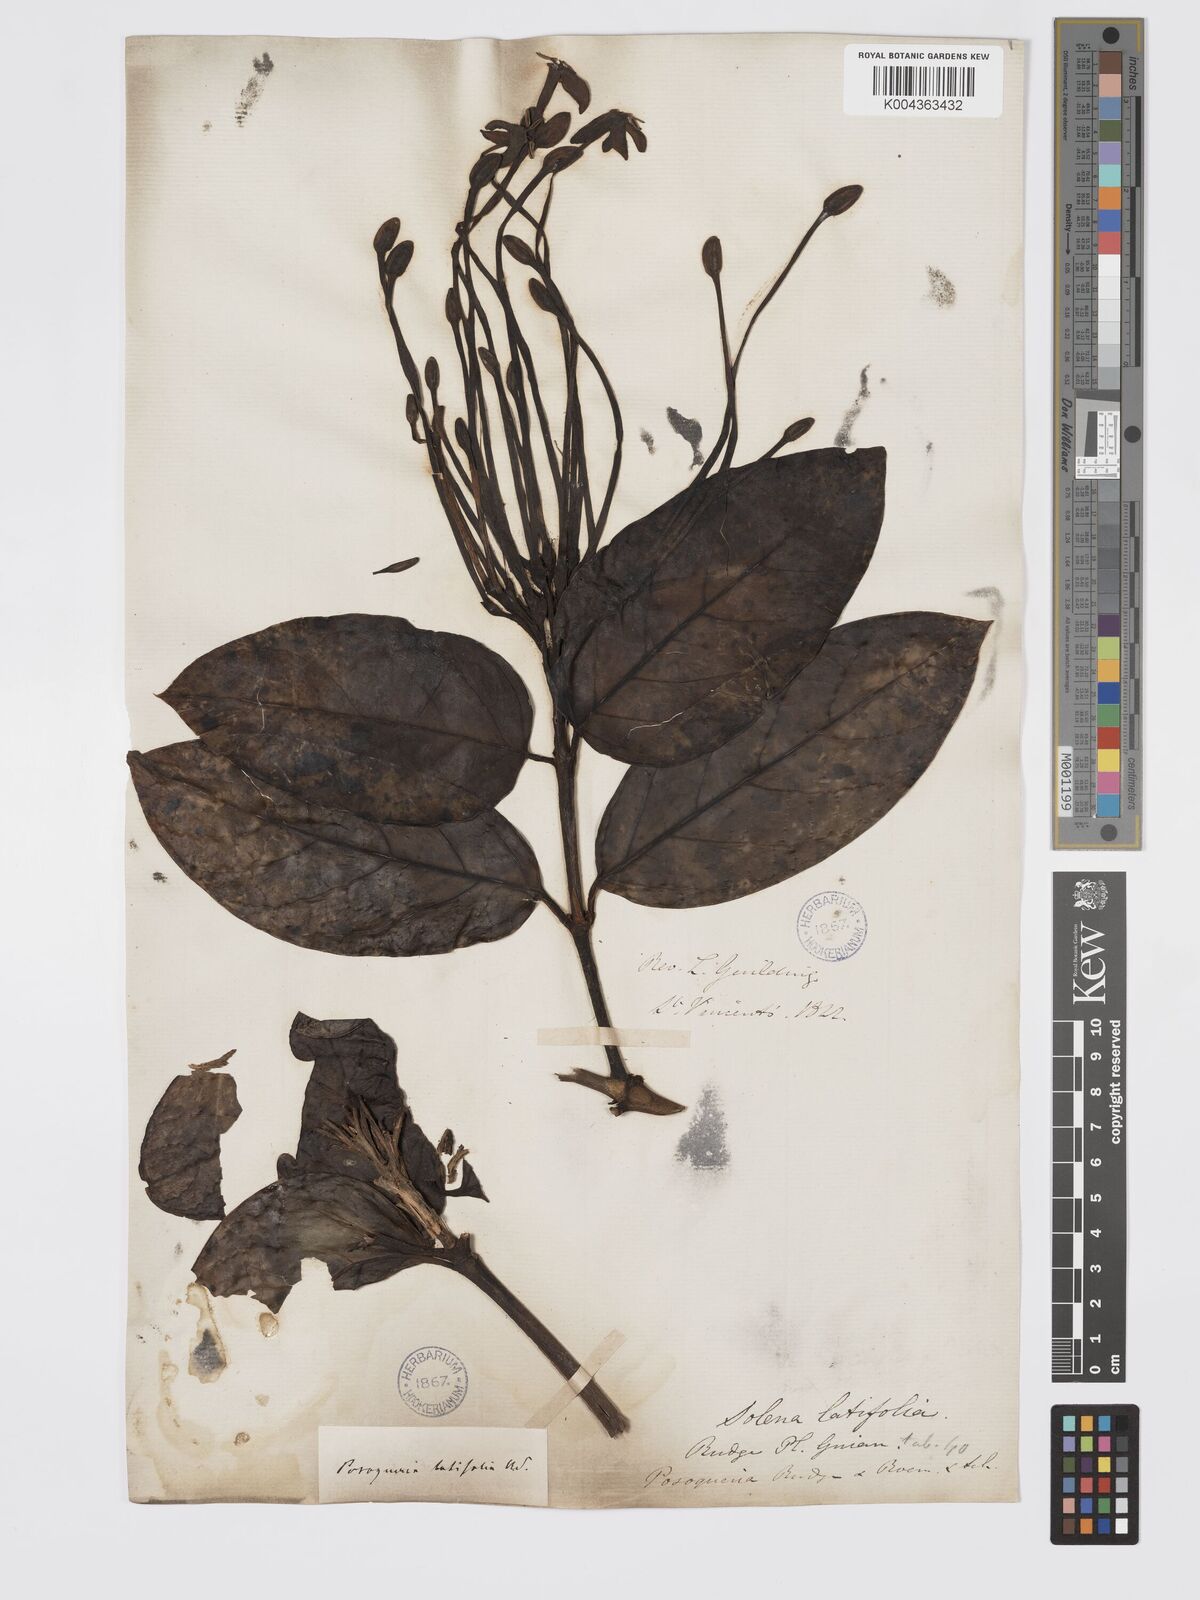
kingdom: Plantae
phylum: Tracheophyta
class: Magnoliopsida
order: Gentianales
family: Rubiaceae
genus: Posoqueria
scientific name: Posoqueria latifolia
